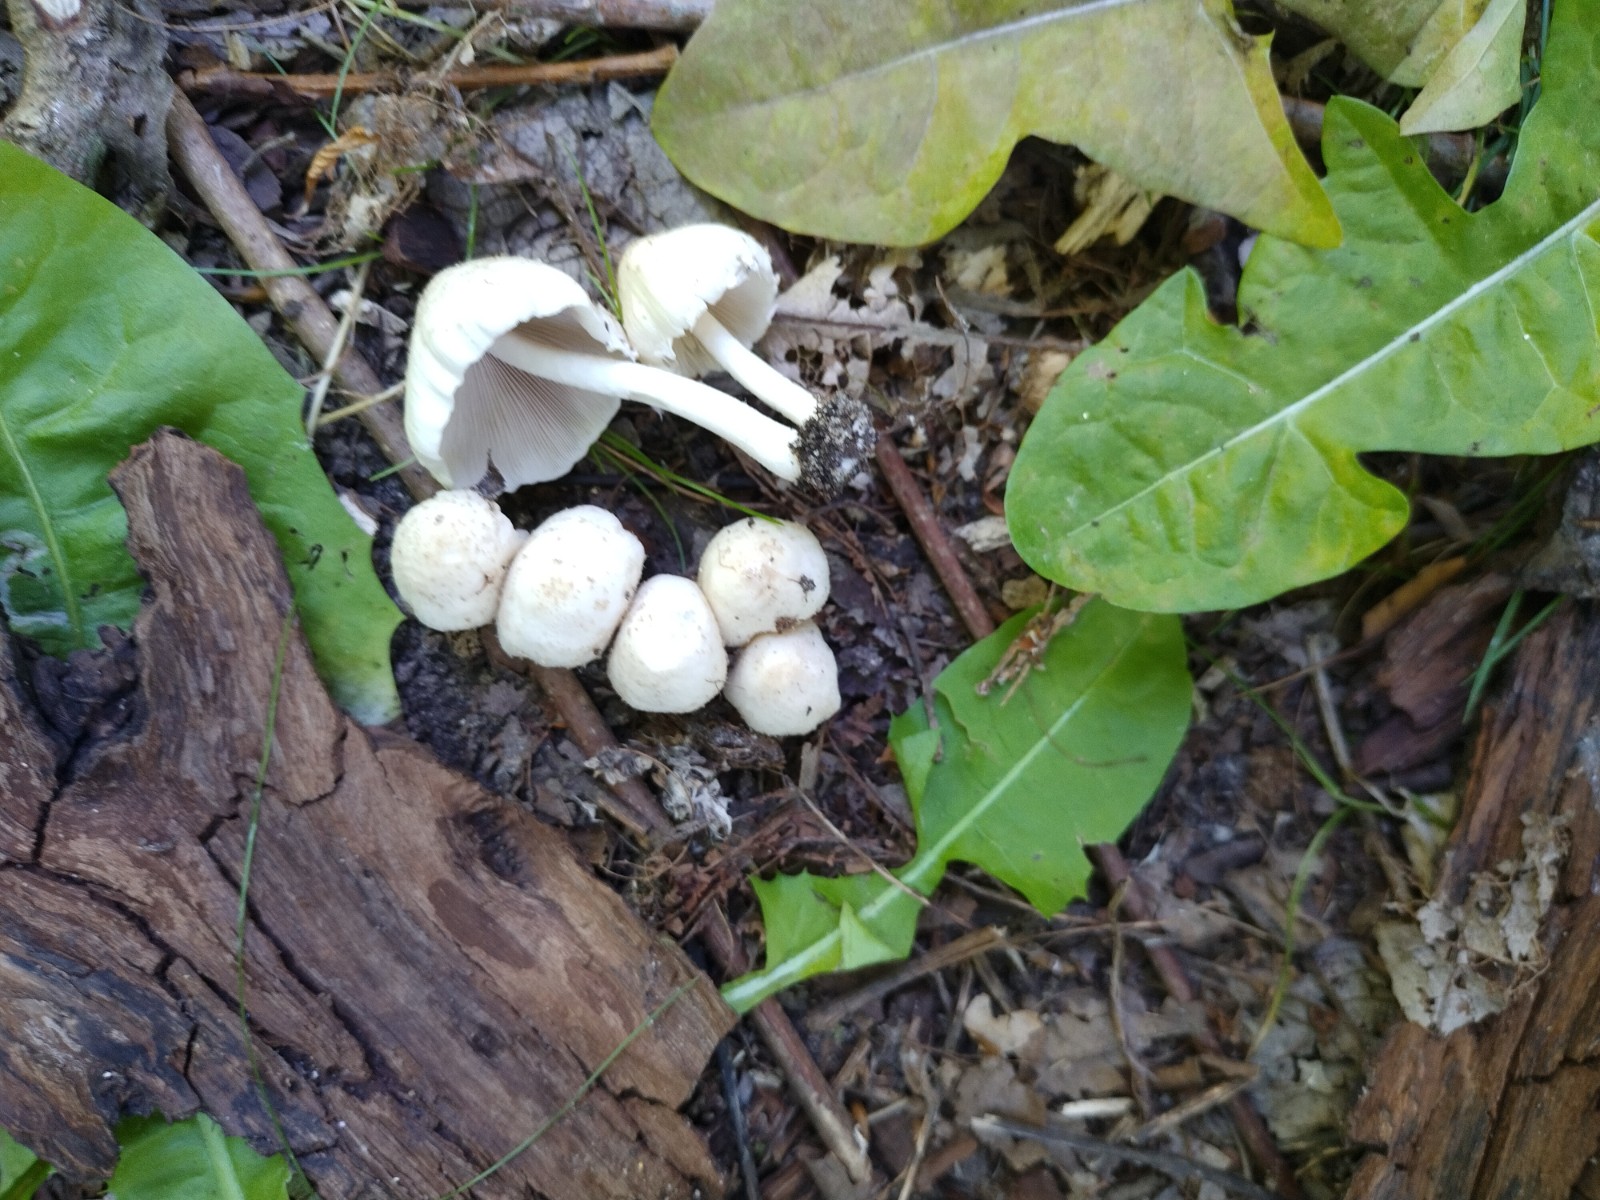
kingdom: Fungi
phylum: Basidiomycota
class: Agaricomycetes
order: Agaricales
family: Psathyrellaceae
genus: Candolleomyces
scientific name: Candolleomyces candolleanus
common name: Candolles mørkhat
